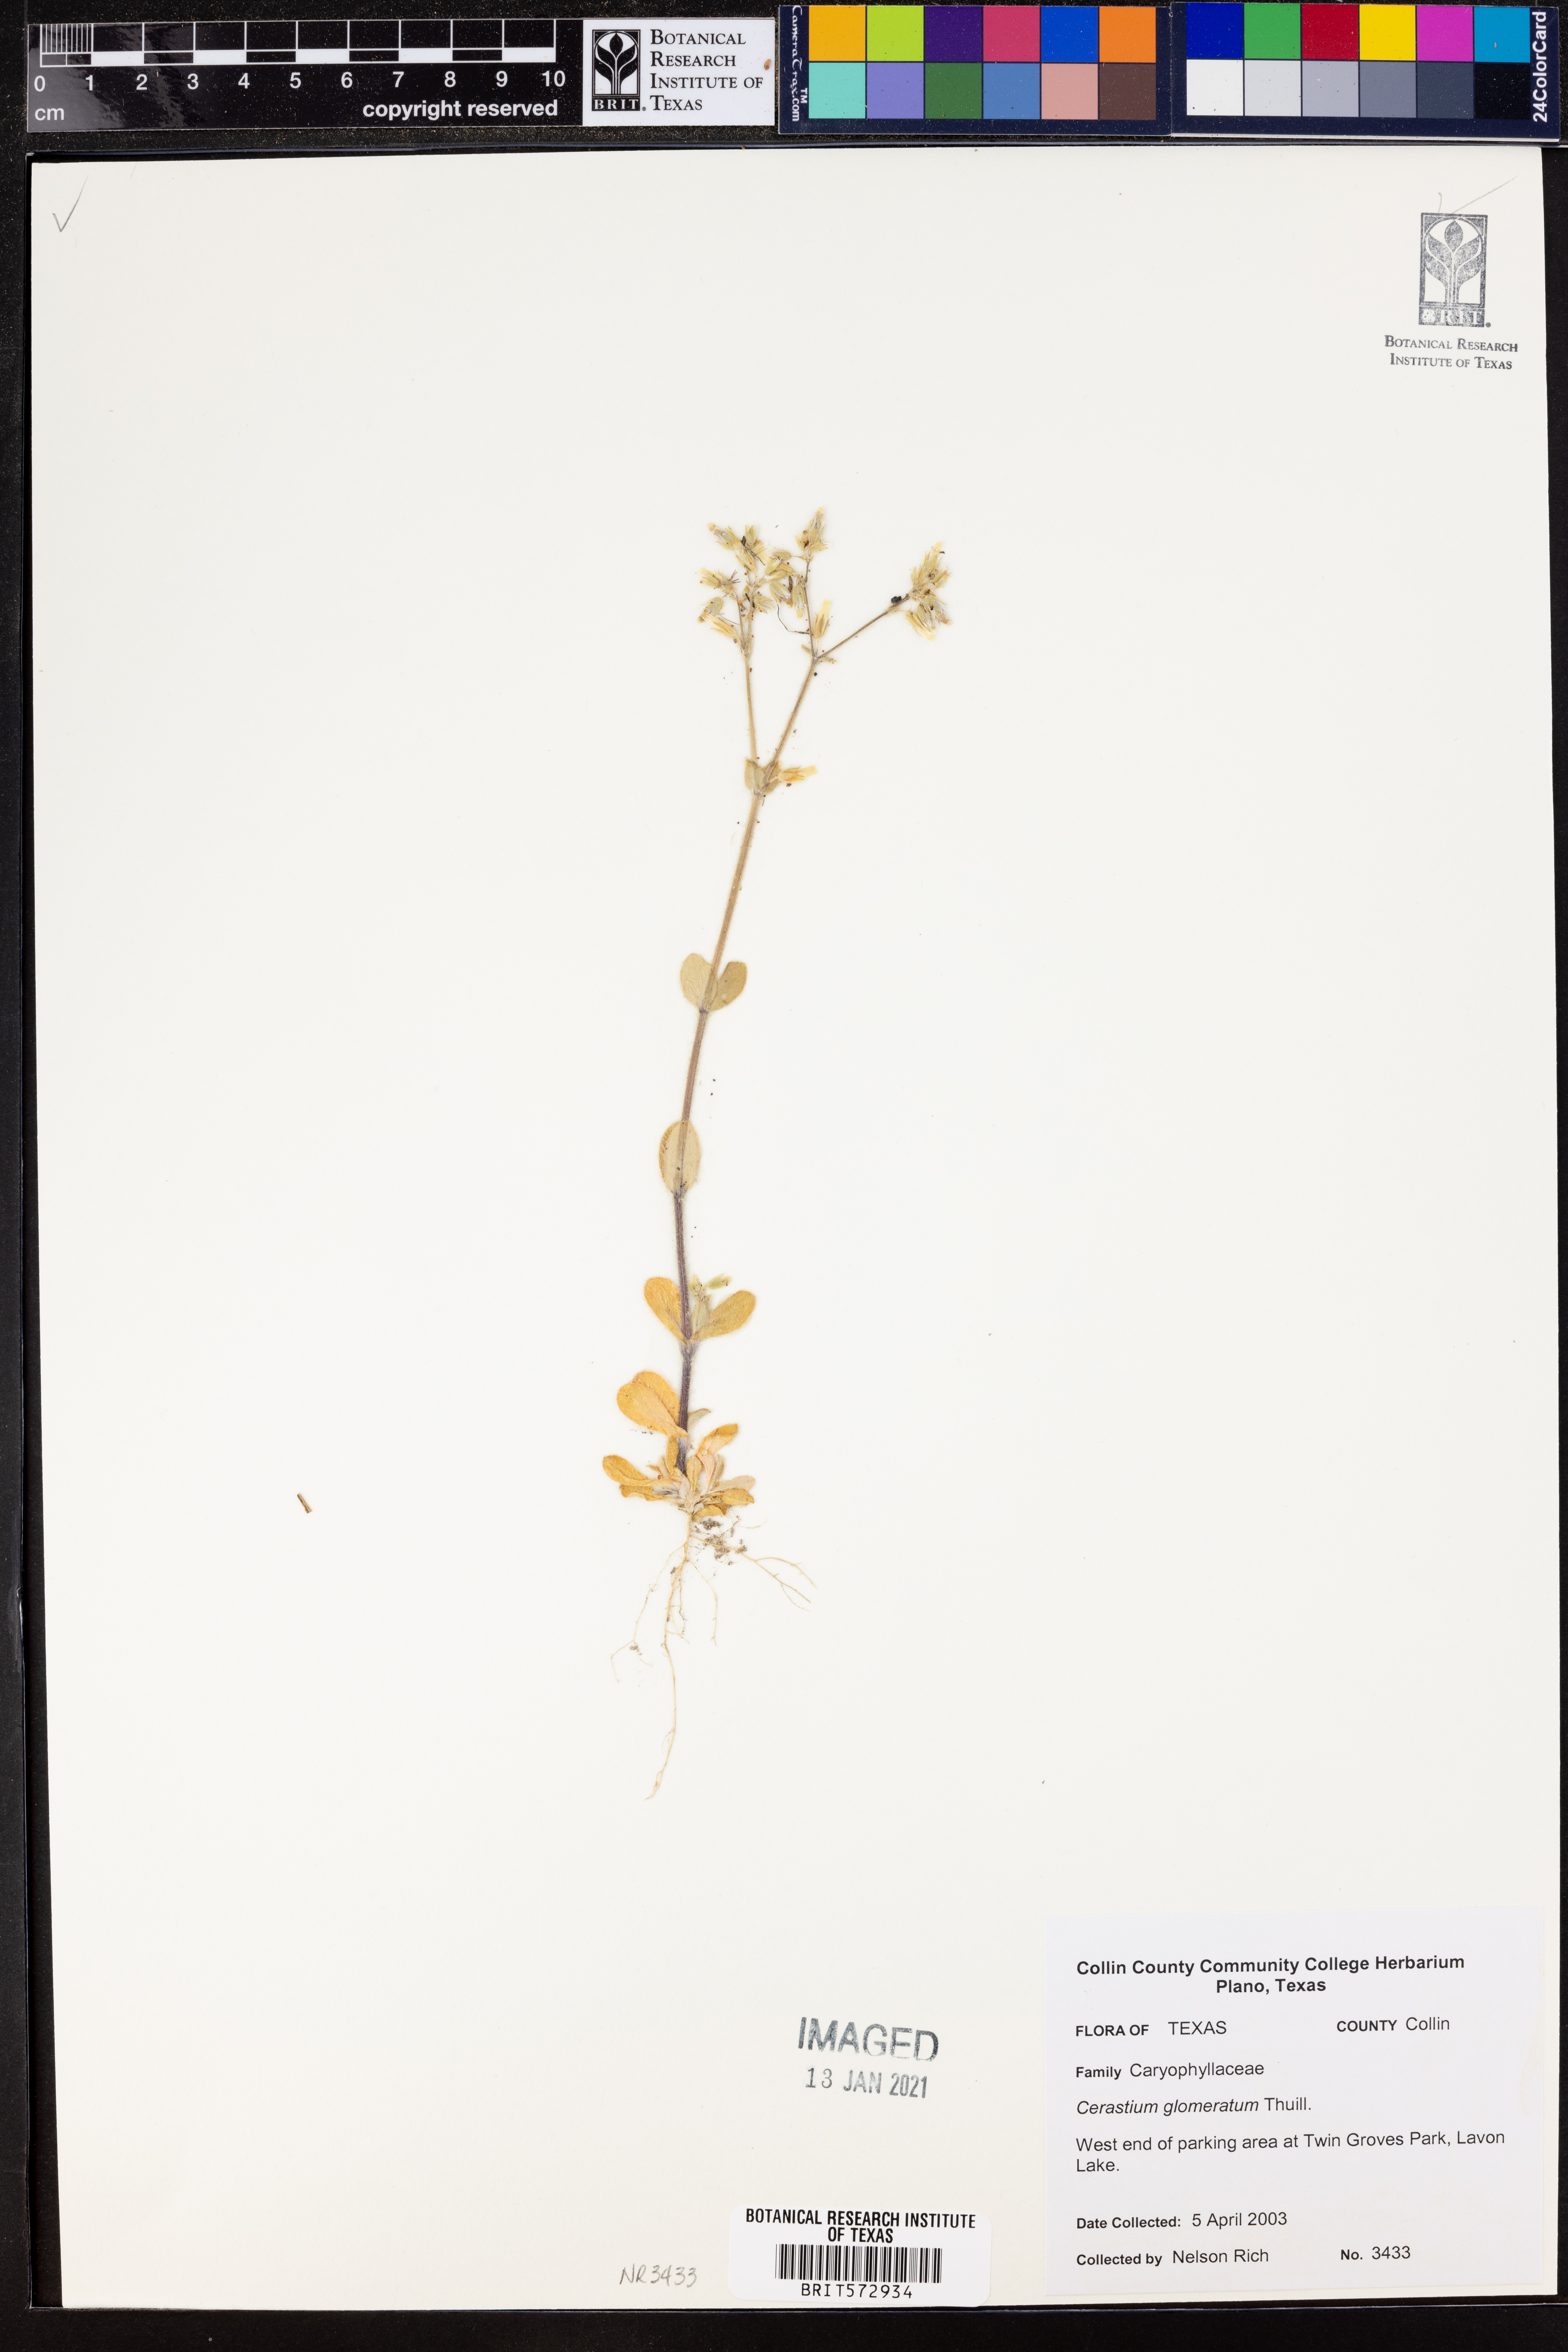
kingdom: Plantae
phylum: Tracheophyta
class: Magnoliopsida
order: Caryophyllales
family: Caryophyllaceae
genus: Cerastium
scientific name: Cerastium glomeratum
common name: Sticky chickweed
